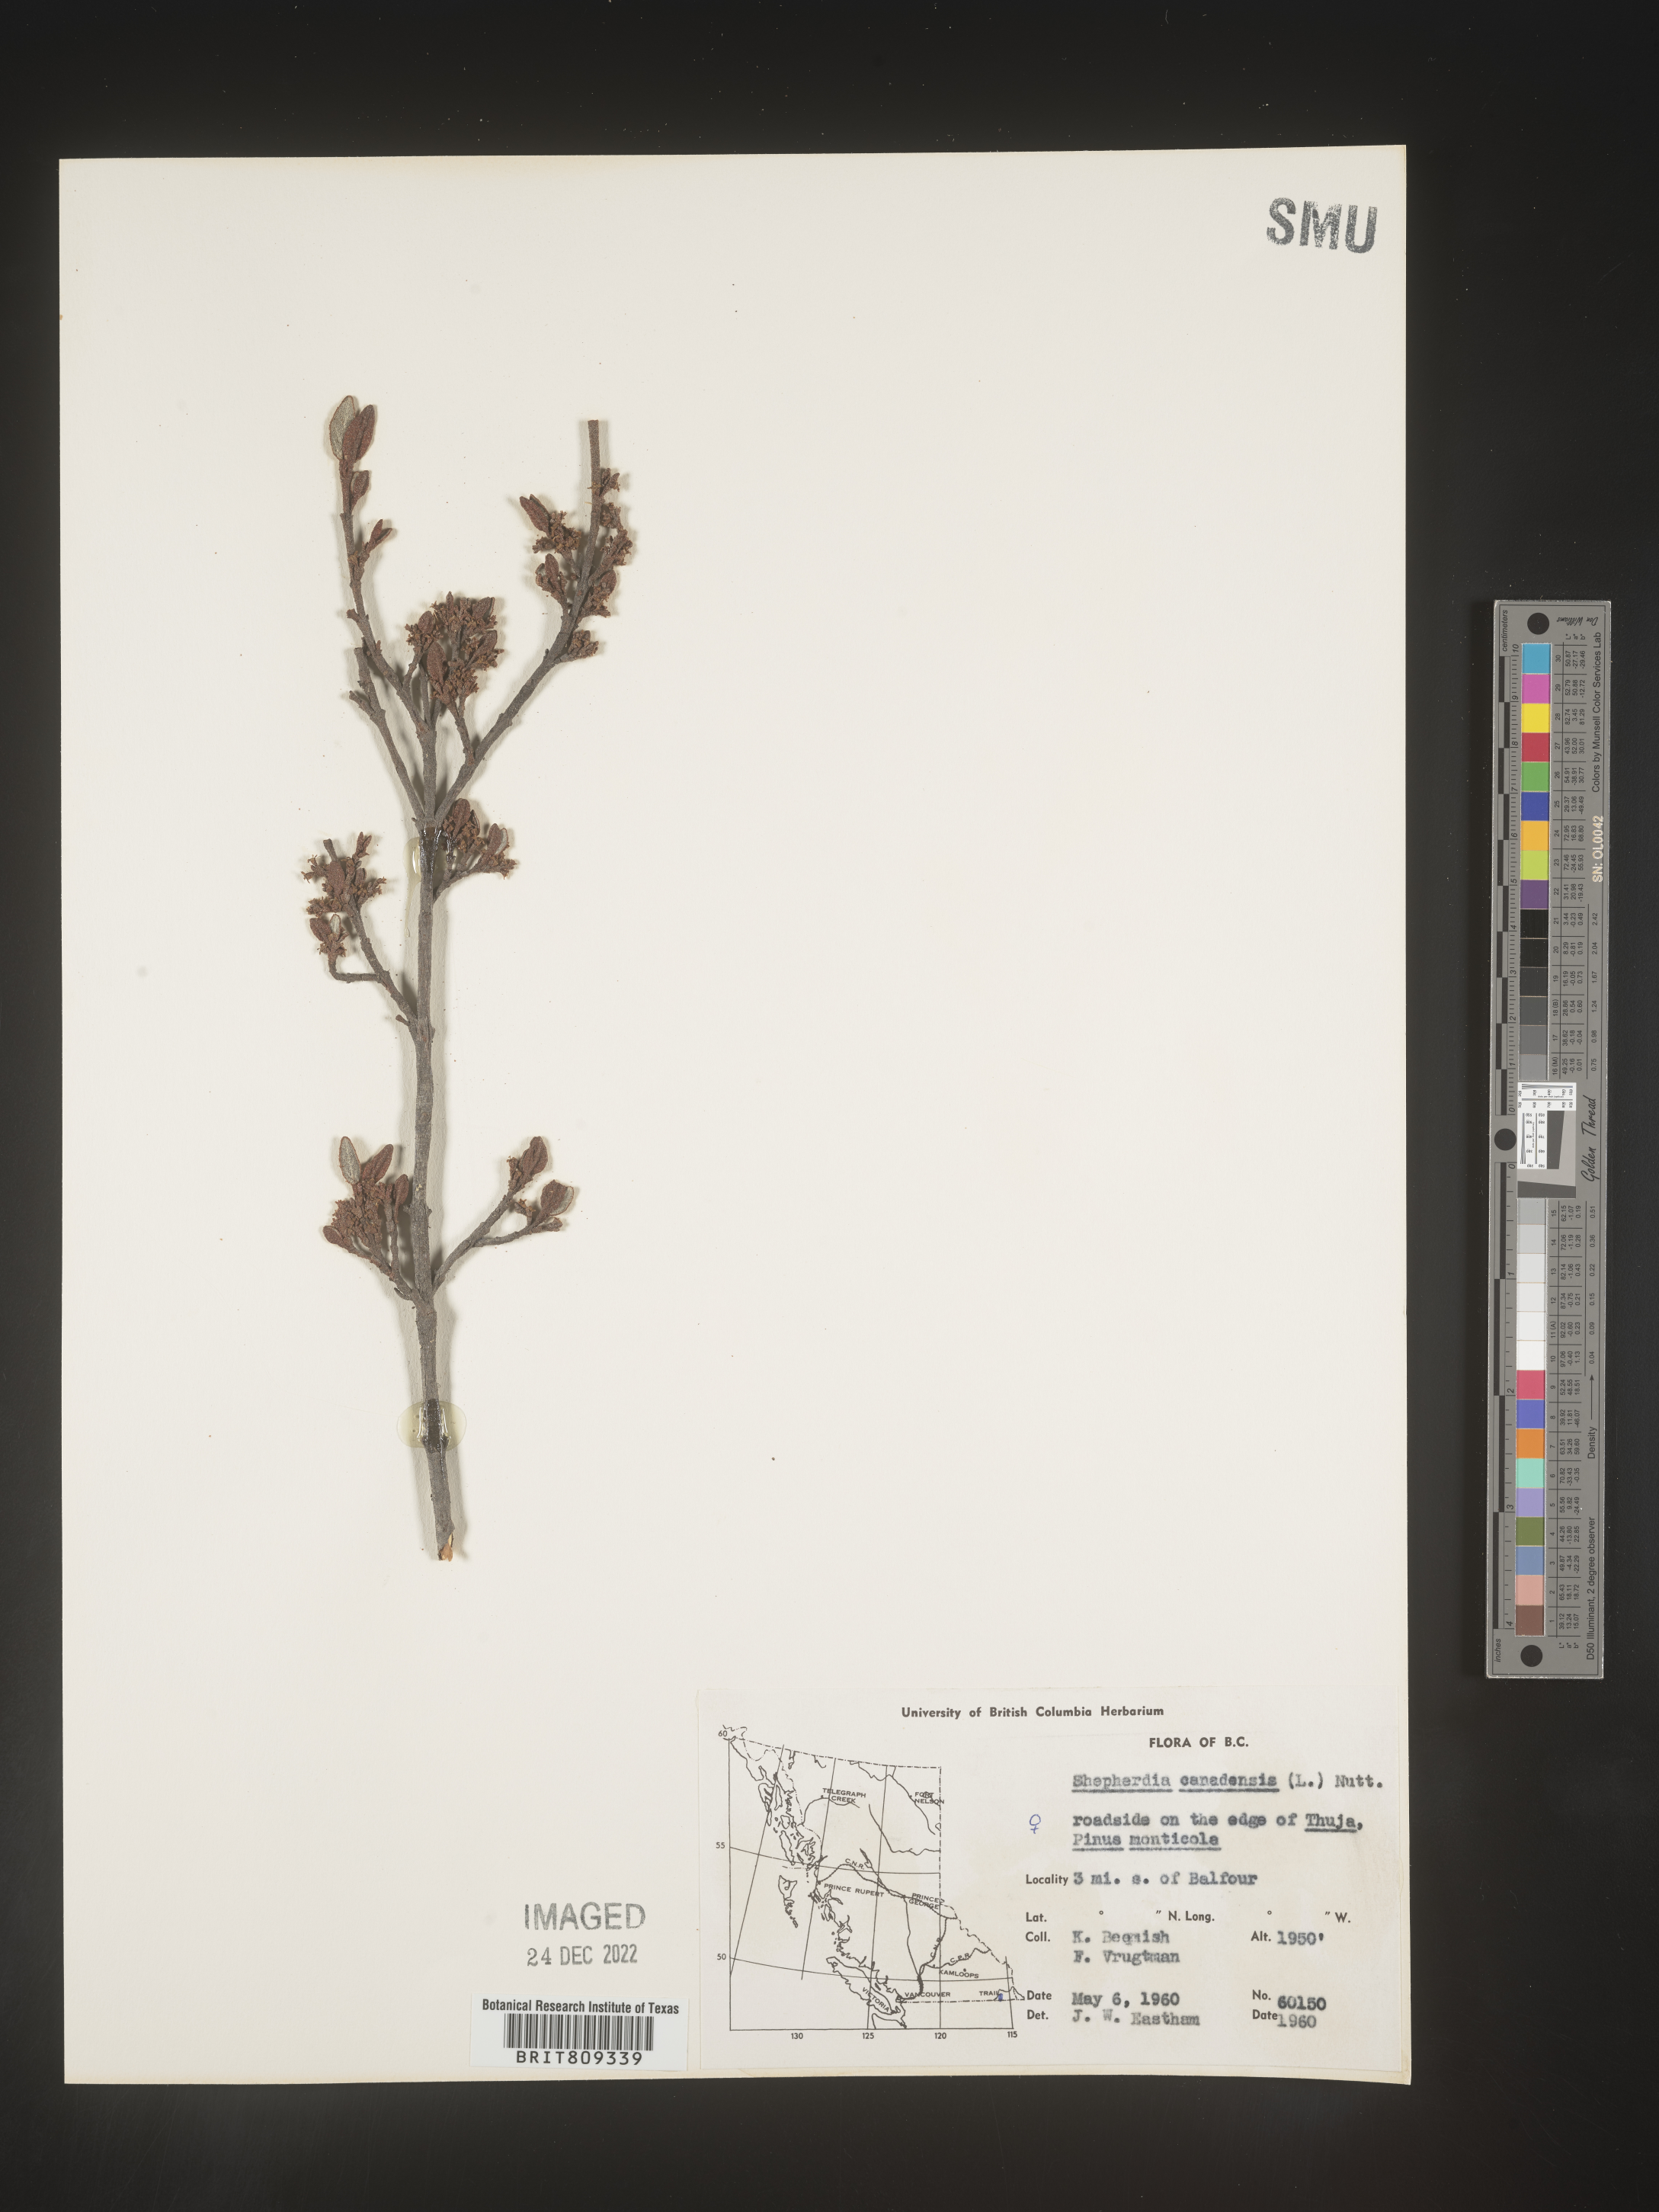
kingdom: Plantae
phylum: Tracheophyta
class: Magnoliopsida
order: Rosales
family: Elaeagnaceae
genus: Shepherdia
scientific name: Shepherdia canadensis
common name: Soapberry
